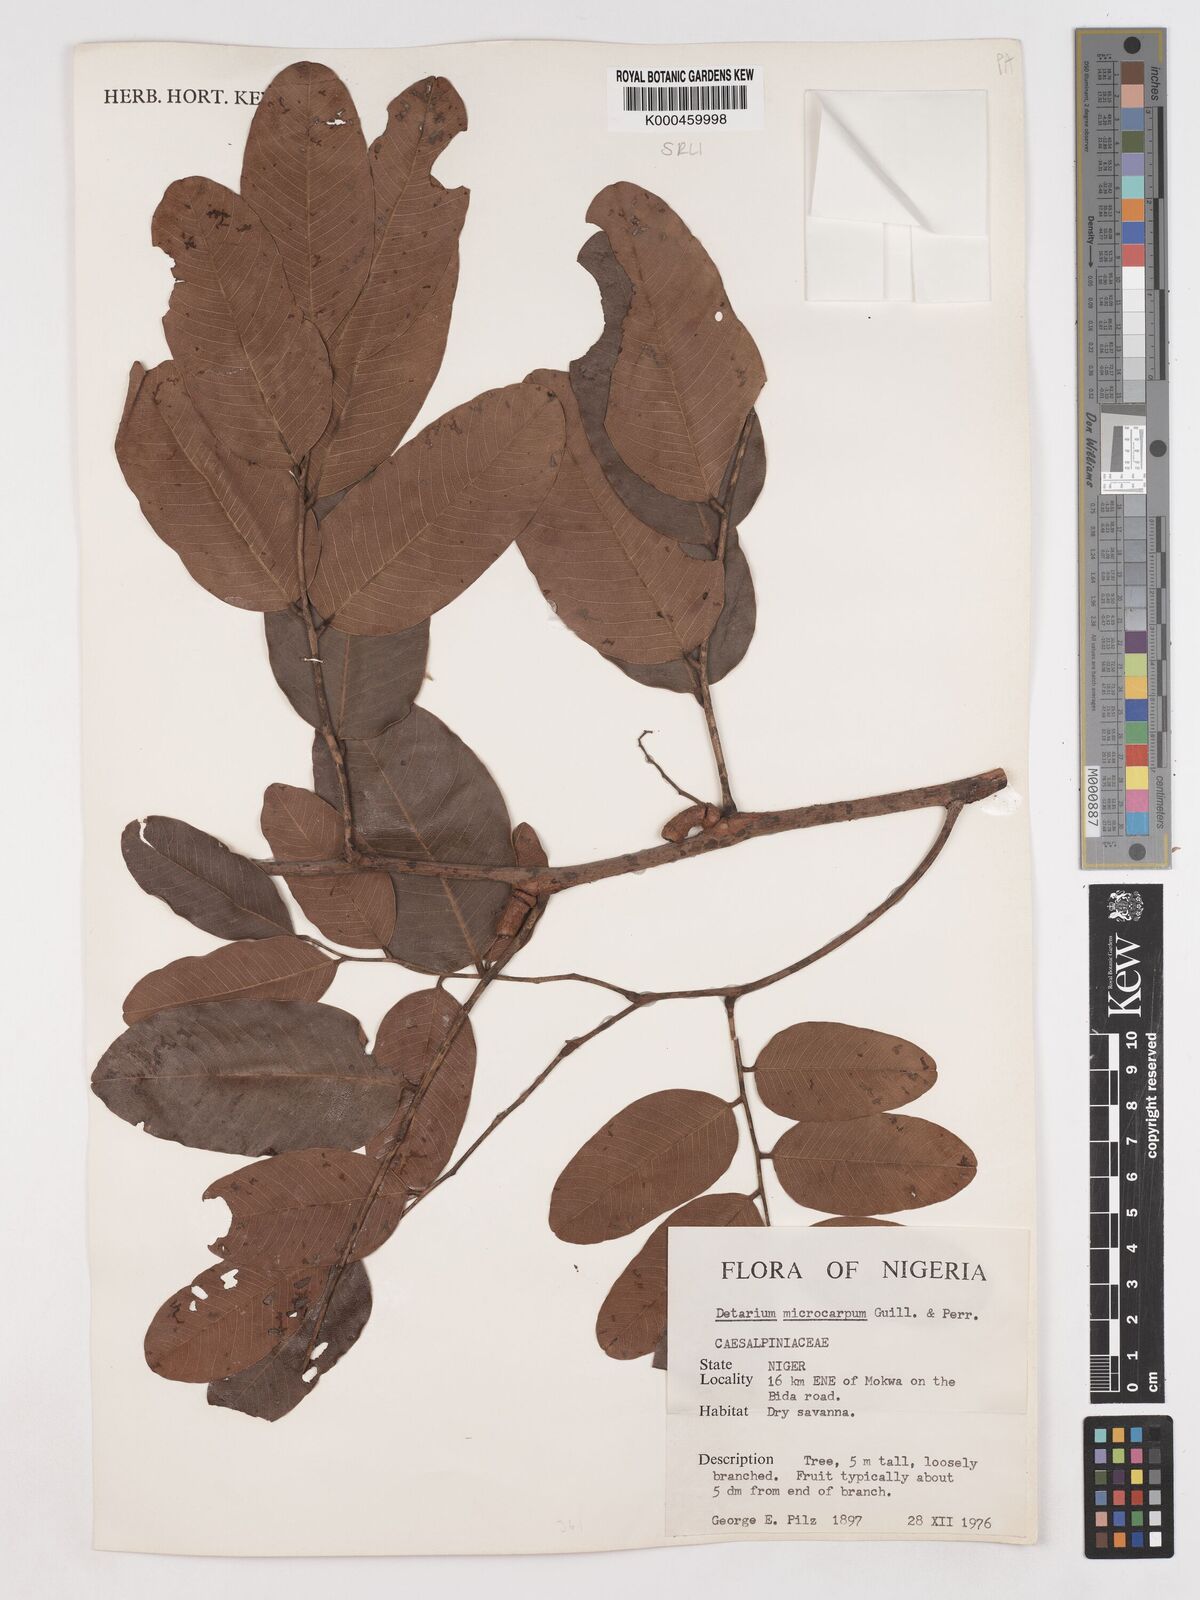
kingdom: Plantae
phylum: Tracheophyta
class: Magnoliopsida
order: Fabales
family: Fabaceae
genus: Detarium
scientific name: Detarium microcarpum
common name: Sweet dattock
